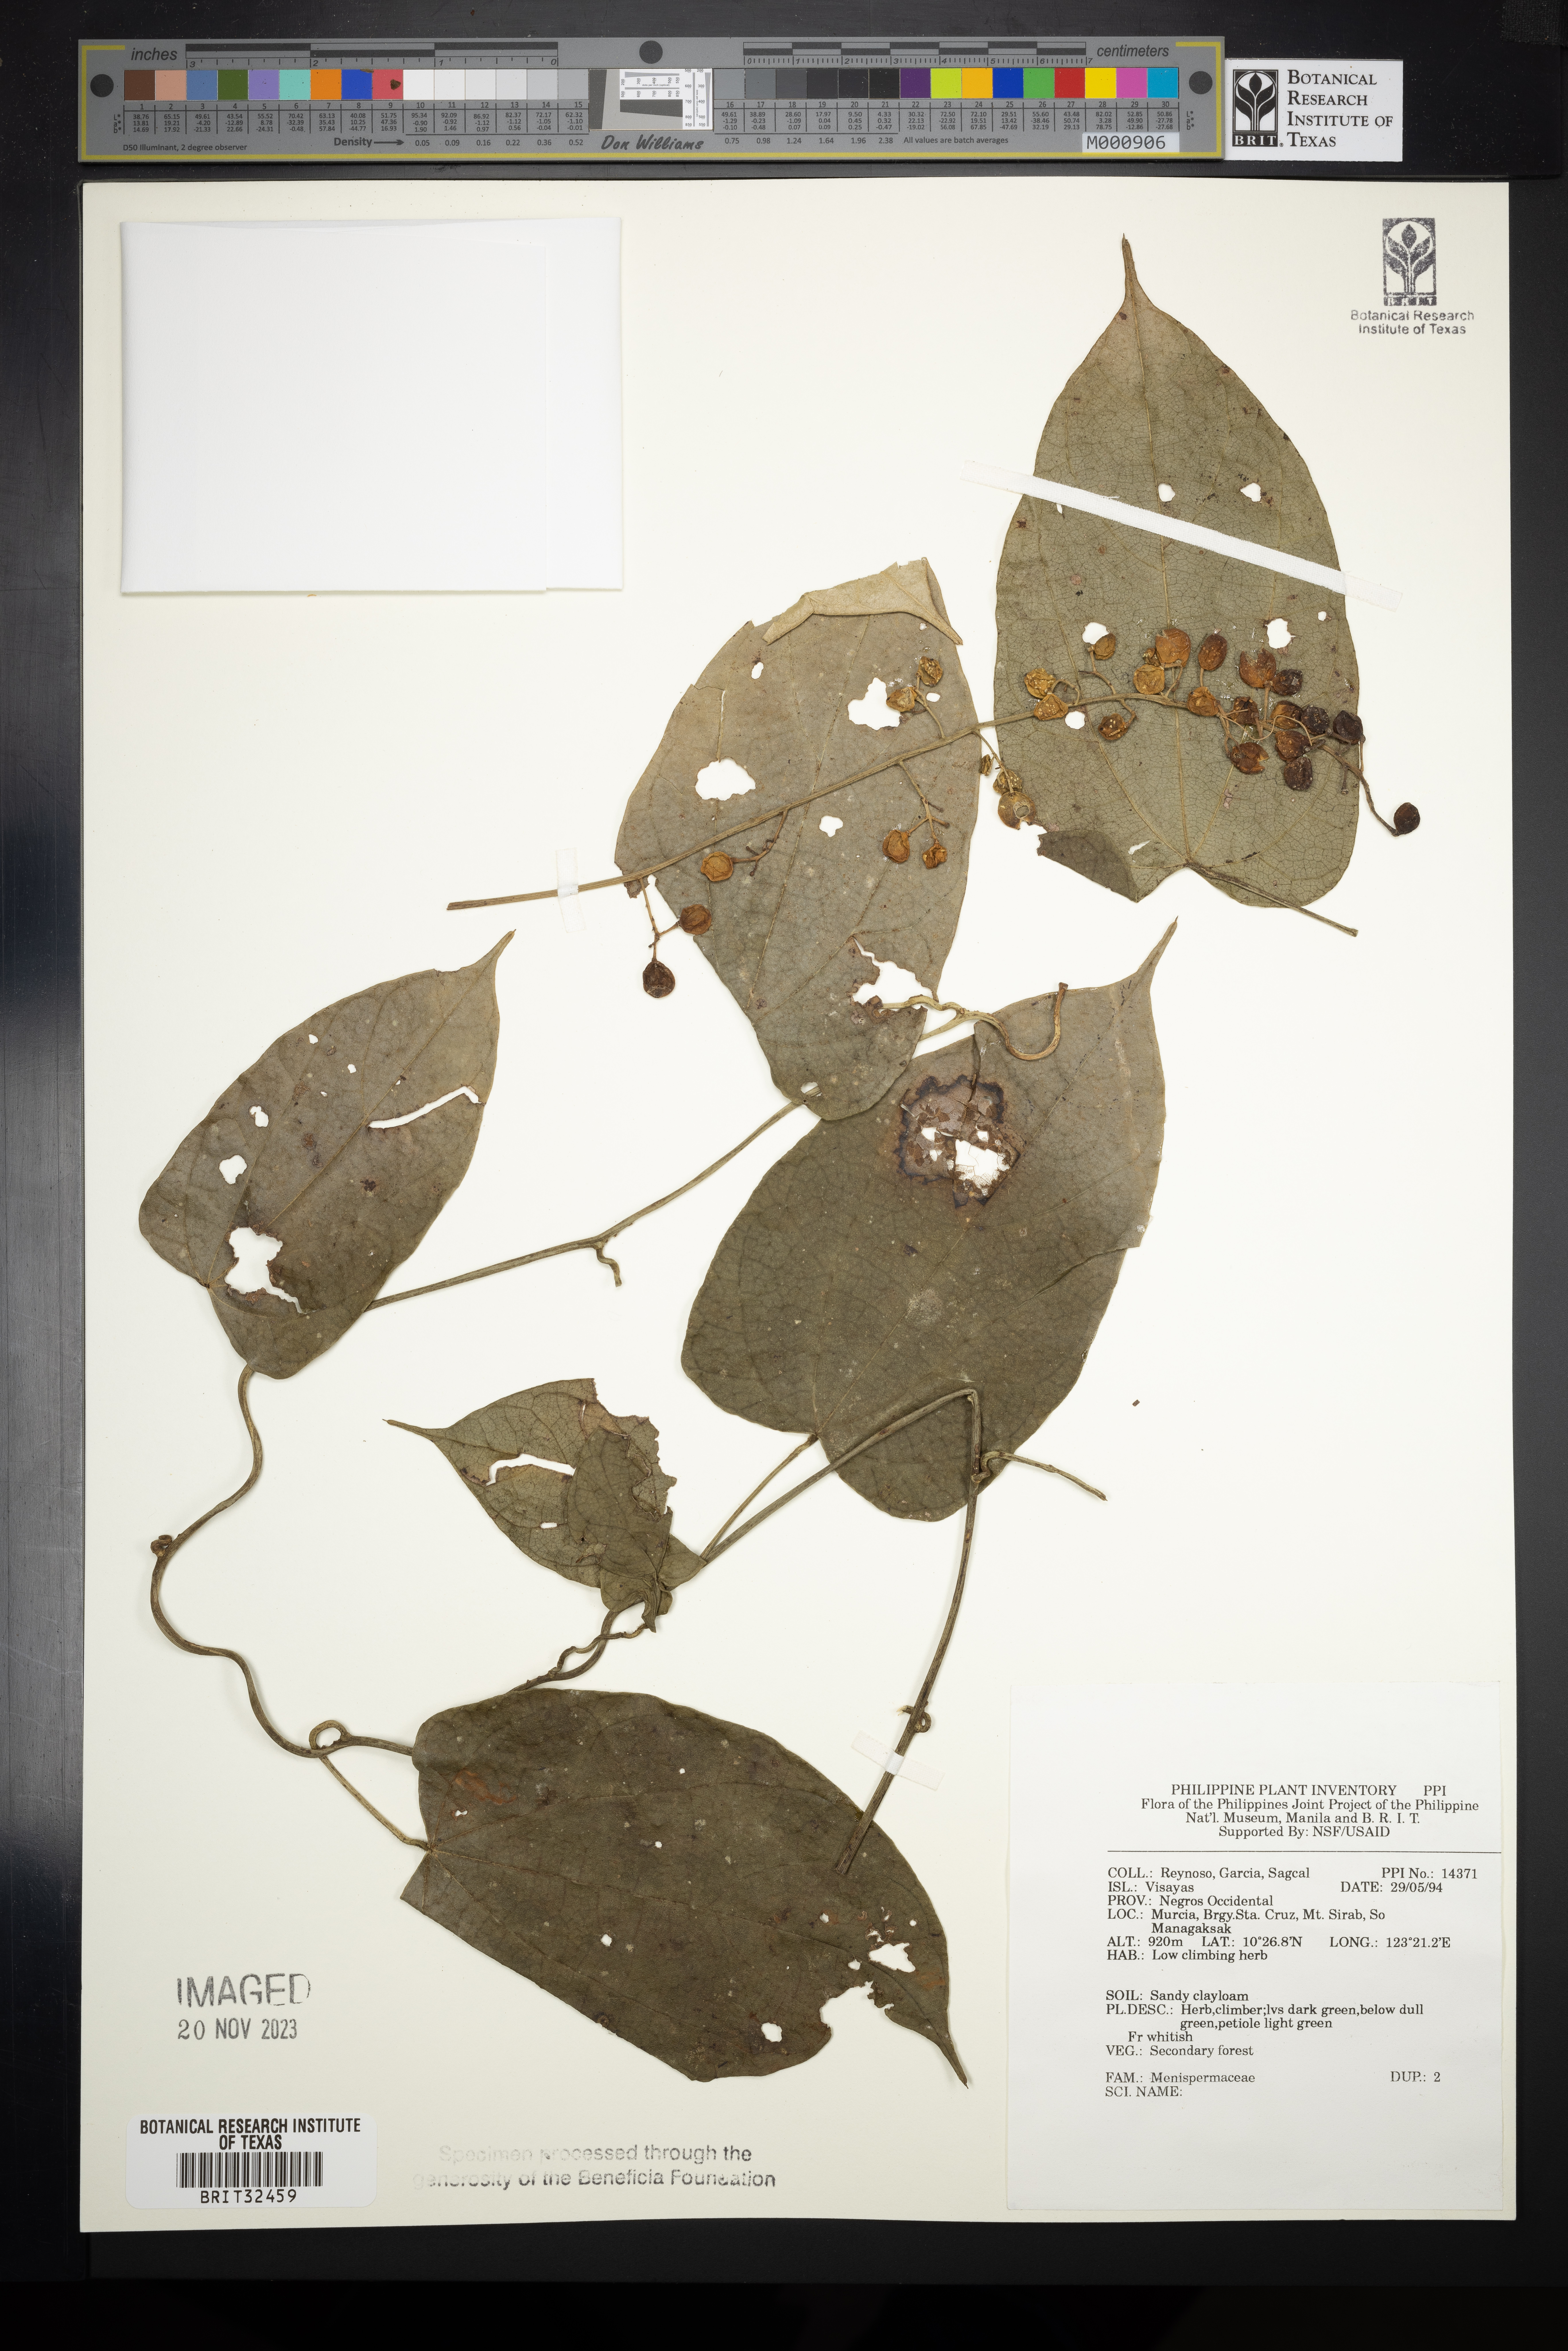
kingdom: Plantae
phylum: Tracheophyta
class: Magnoliopsida
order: Ranunculales
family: Menispermaceae
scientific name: Menispermaceae
